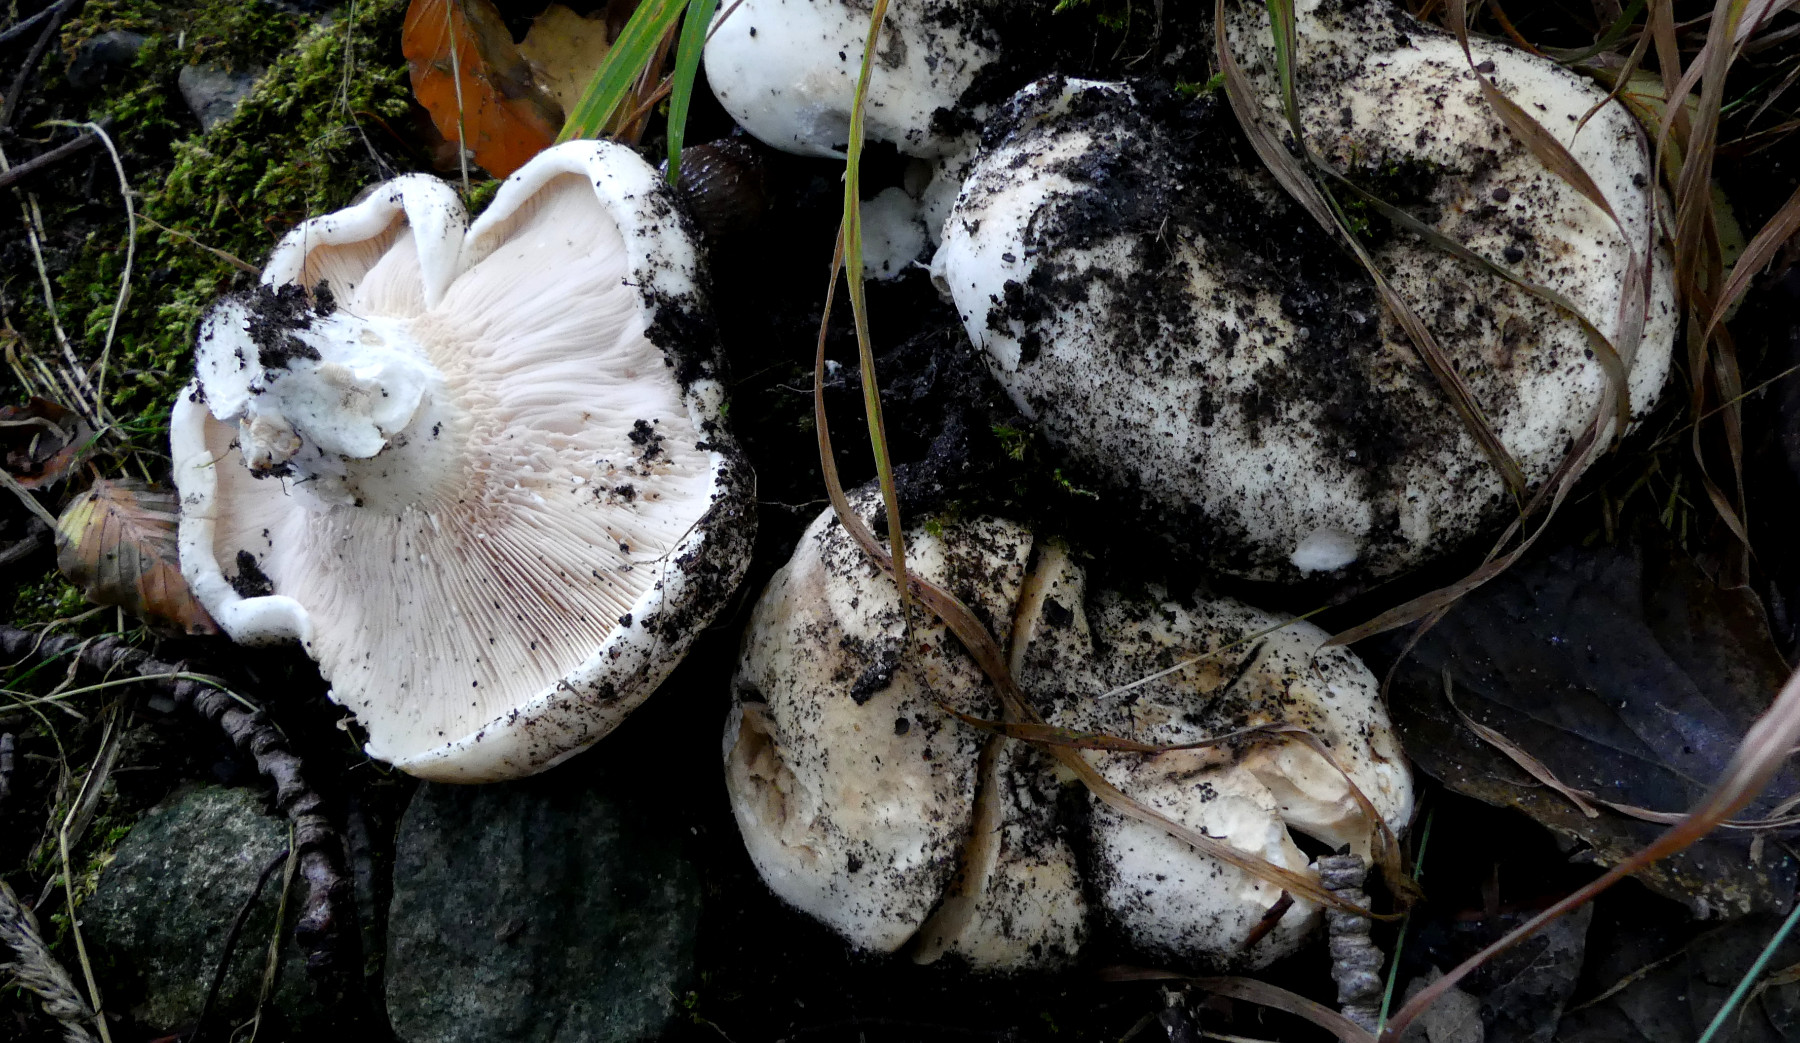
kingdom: Fungi
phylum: Basidiomycota
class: Agaricomycetes
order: Russulales
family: Russulaceae
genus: Lactarius
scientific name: Lactarius controversus
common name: rosabladet mælkehat
